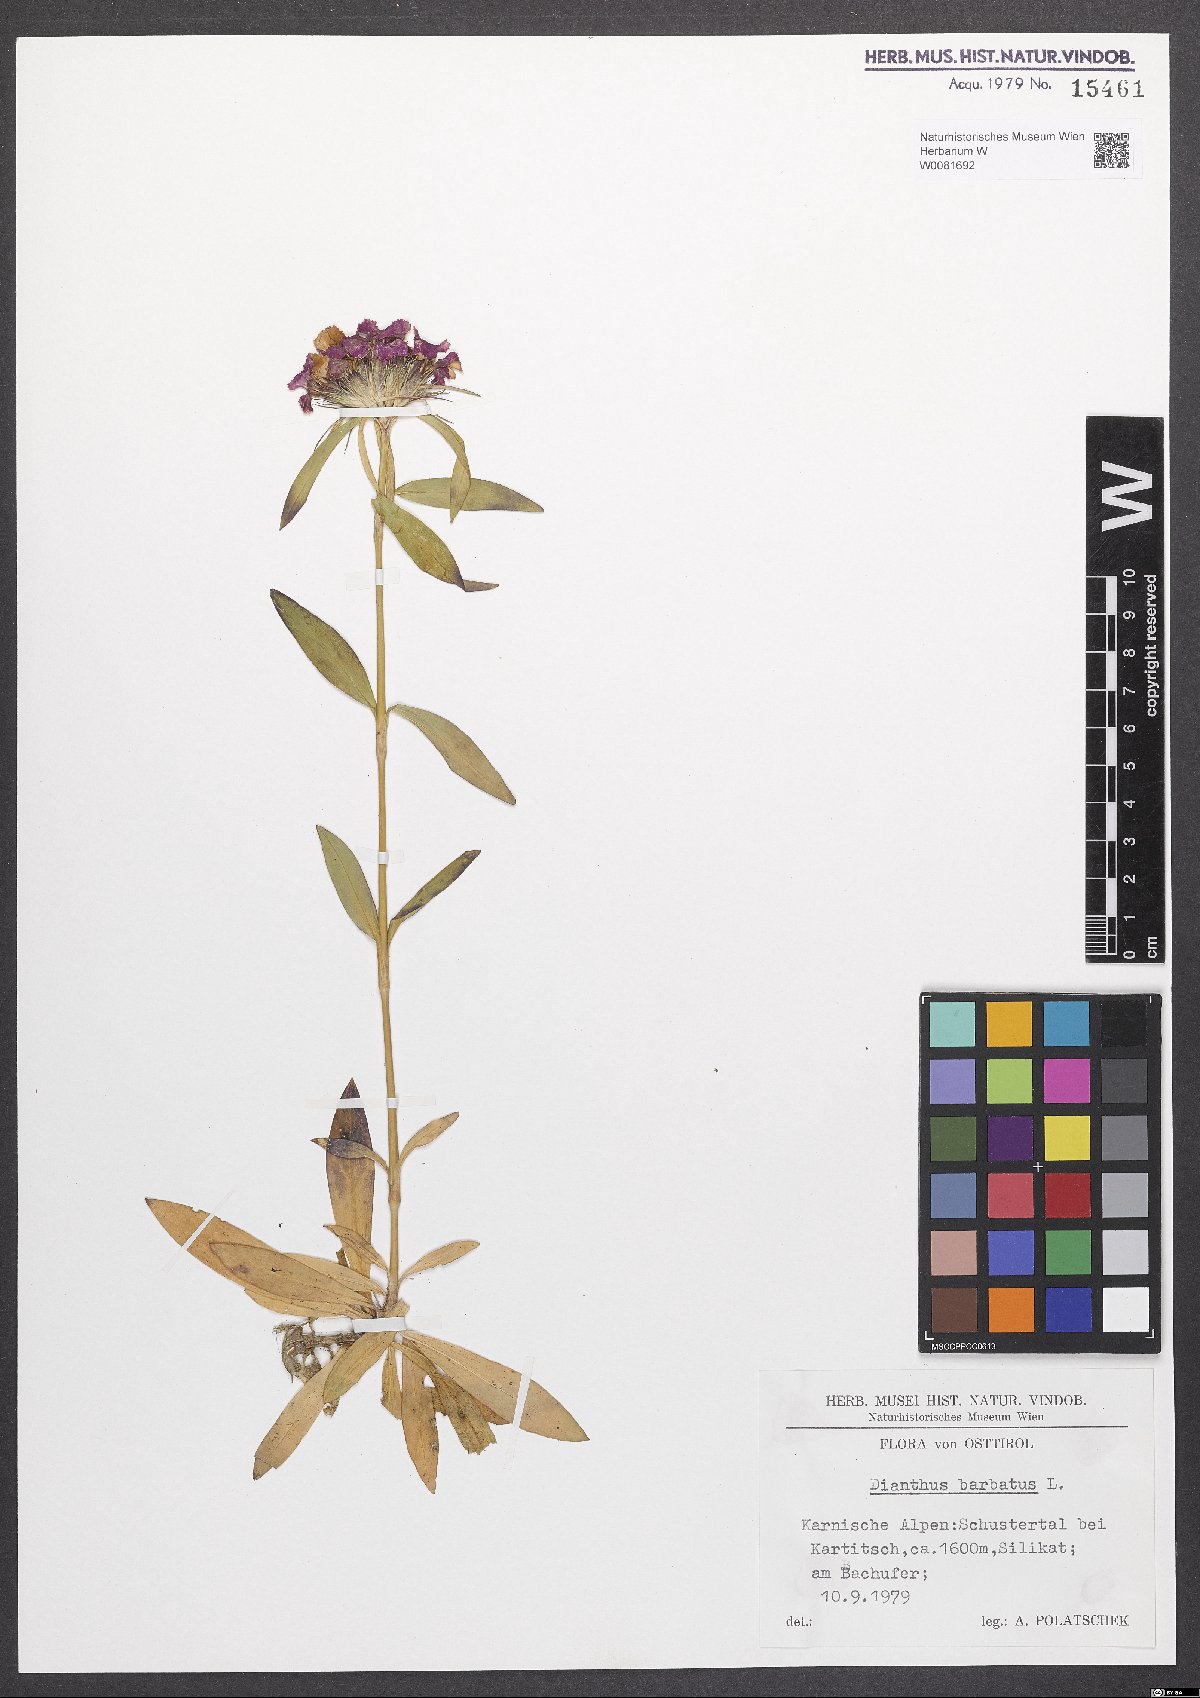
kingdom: Plantae
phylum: Tracheophyta
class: Magnoliopsida
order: Caryophyllales
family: Caryophyllaceae
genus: Dianthus
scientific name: Dianthus barbatus
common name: Sweet-william
